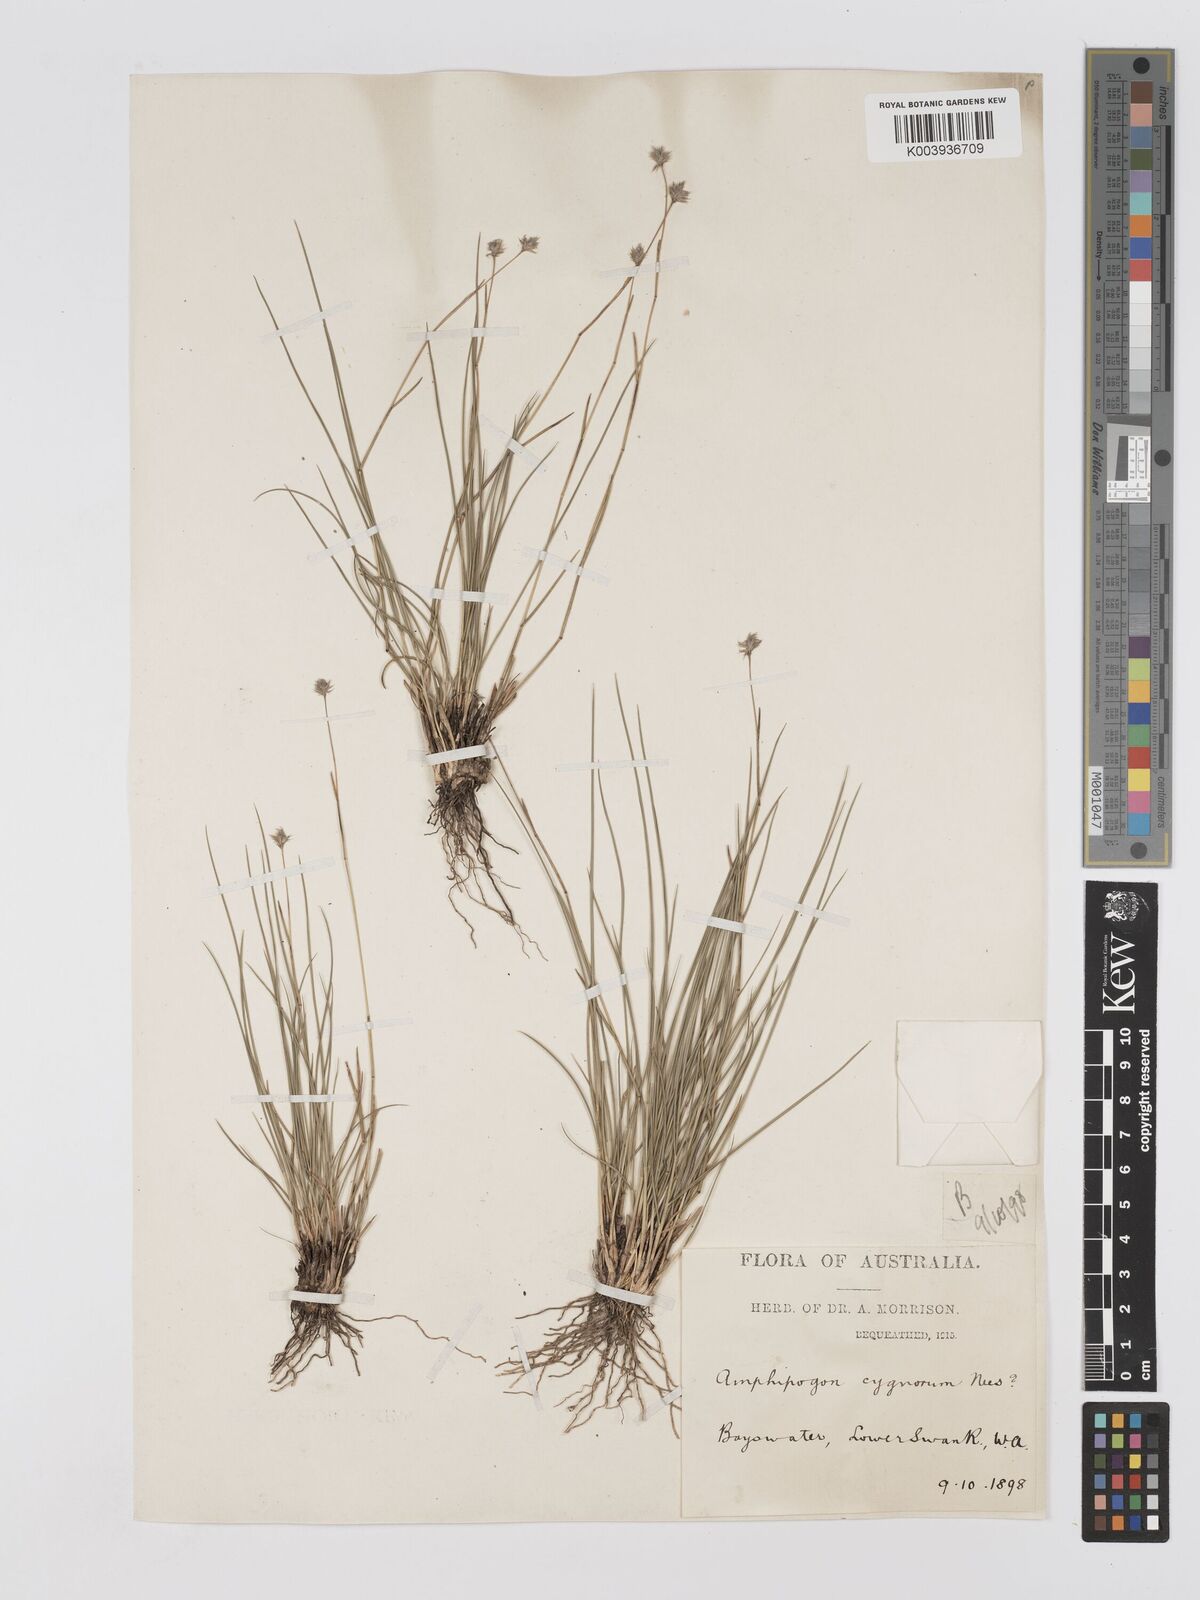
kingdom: Plantae
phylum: Tracheophyta
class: Liliopsida
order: Poales
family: Poaceae
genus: Amphipogon
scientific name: Amphipogon laguroides
